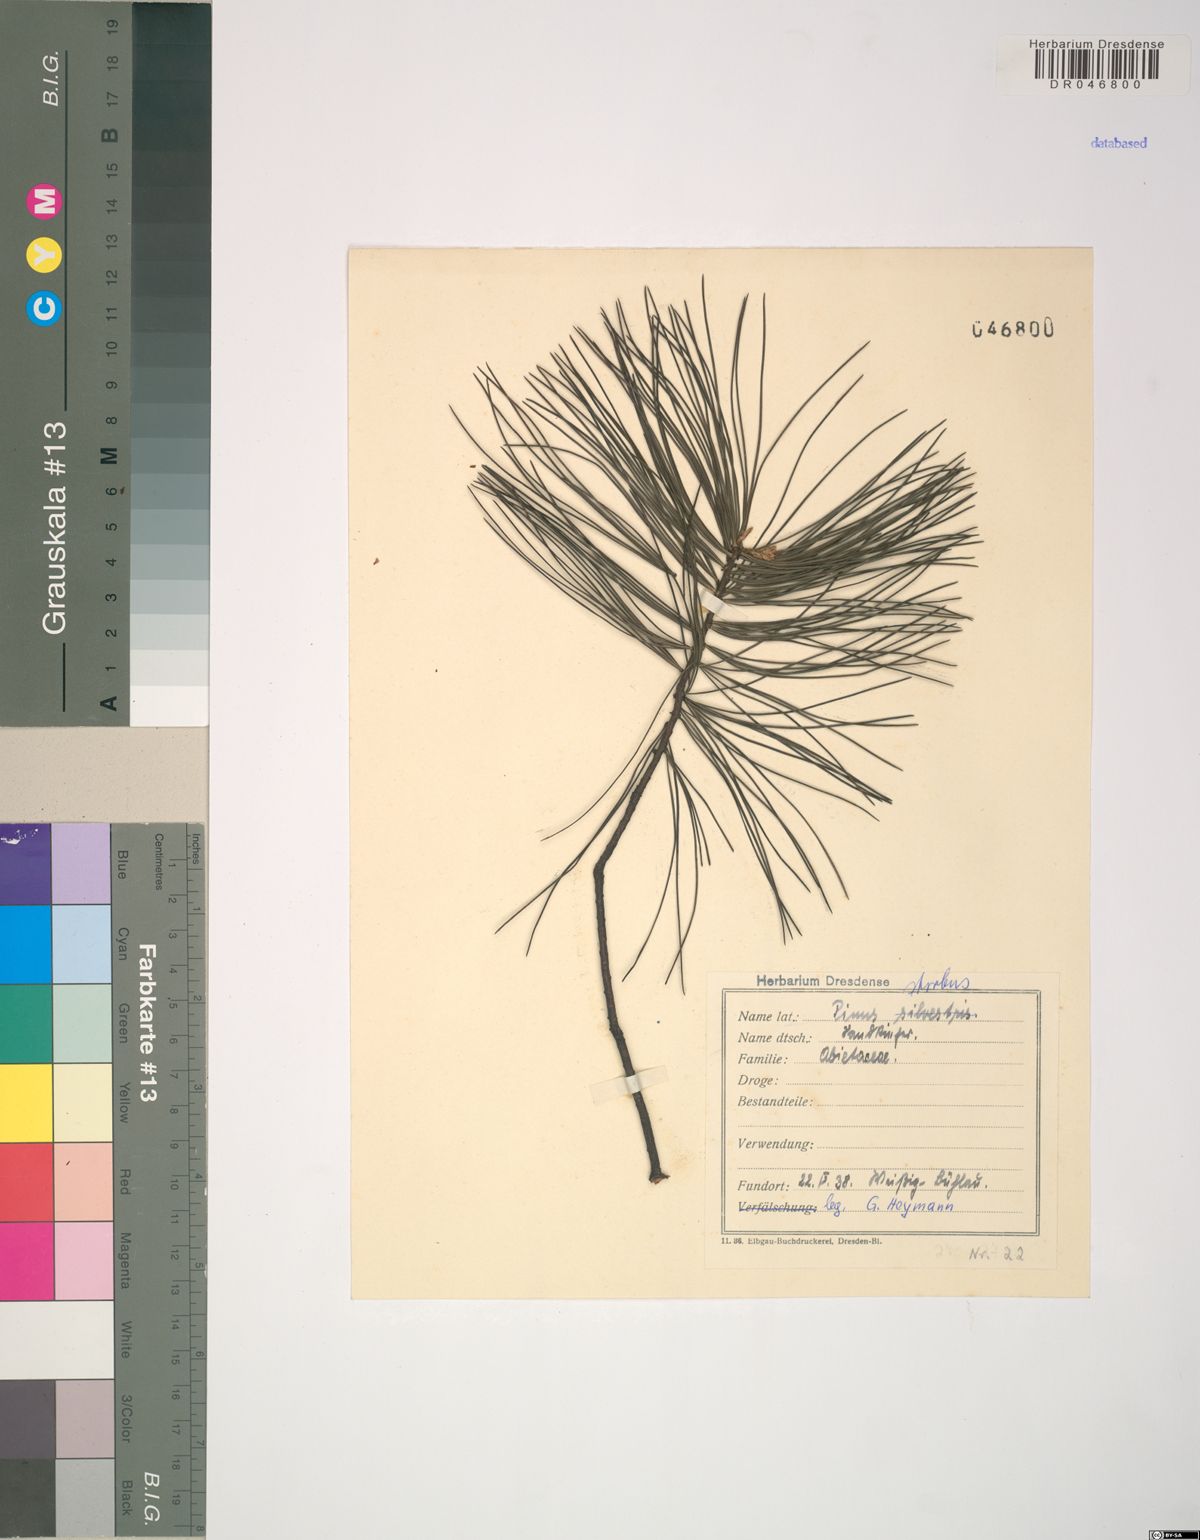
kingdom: Plantae
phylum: Tracheophyta
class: Pinopsida
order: Pinales
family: Pinaceae
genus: Pinus
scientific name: Pinus strobus
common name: Weymouth pine
